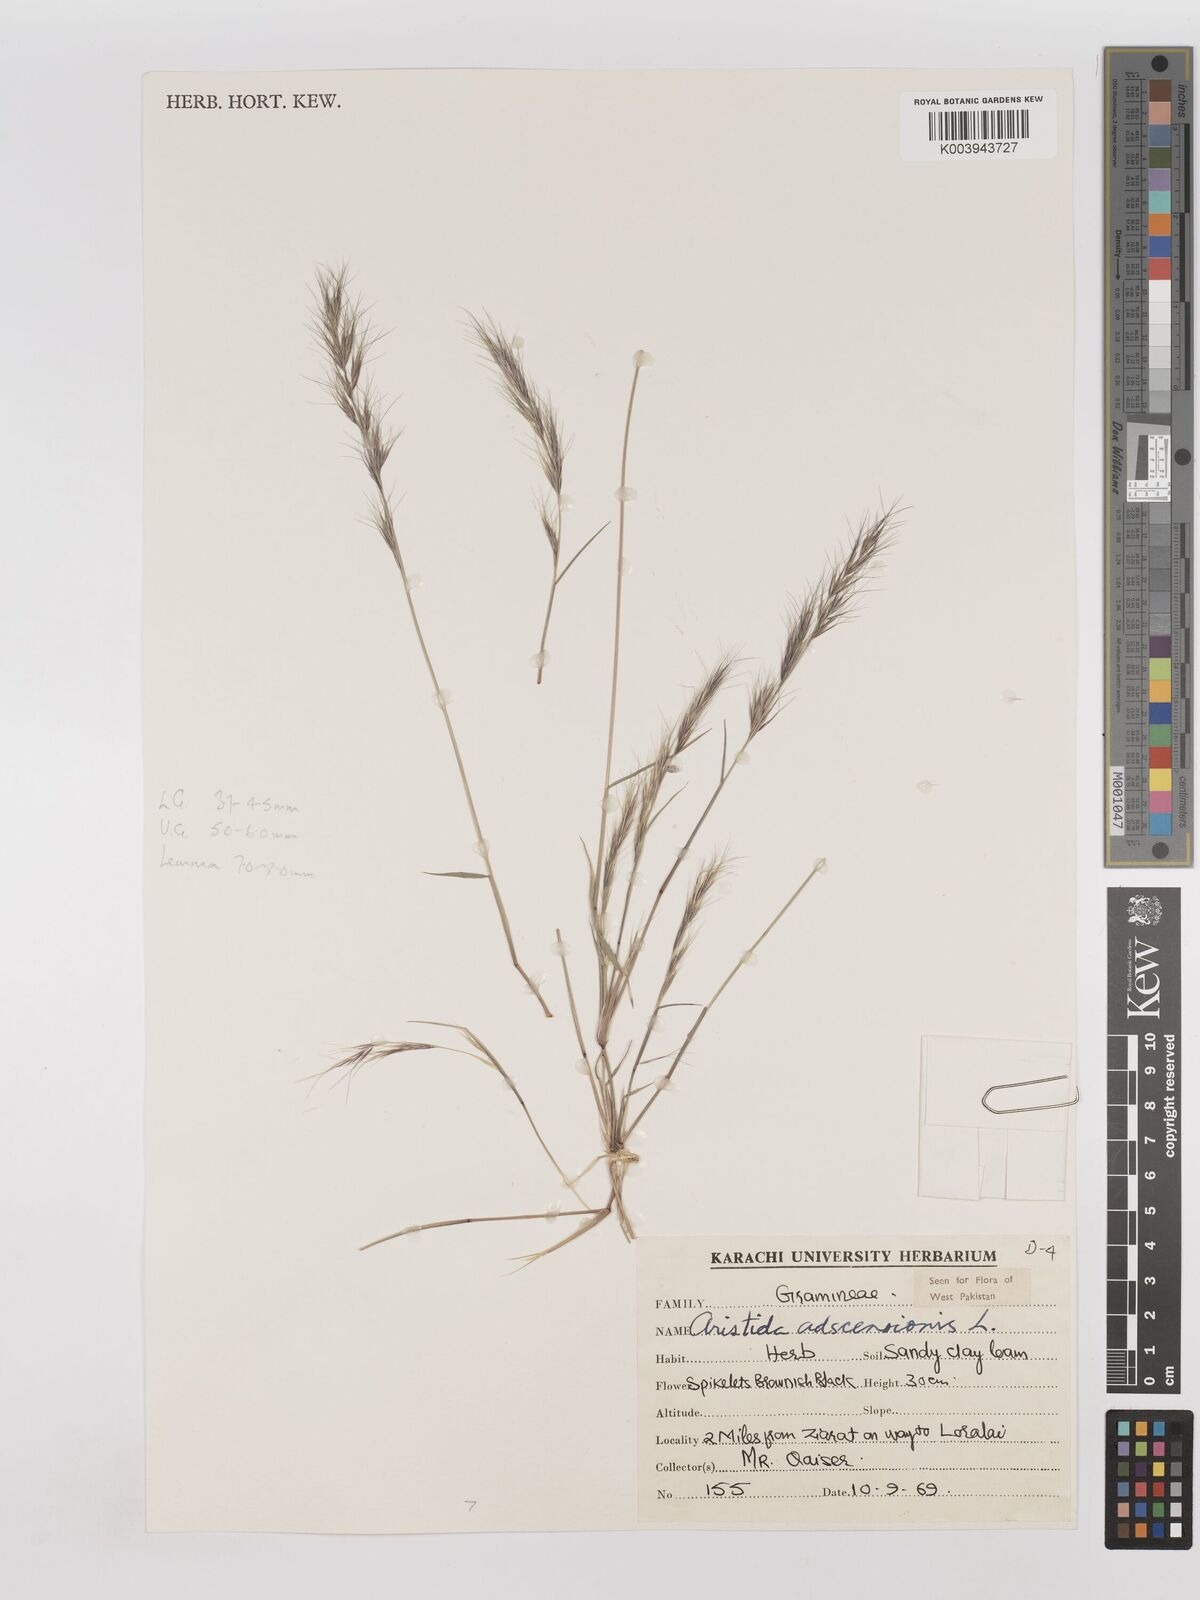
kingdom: Plantae
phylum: Tracheophyta
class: Liliopsida
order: Poales
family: Poaceae
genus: Aristida
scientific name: Aristida adscensionis
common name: Sixweeks threeawn
